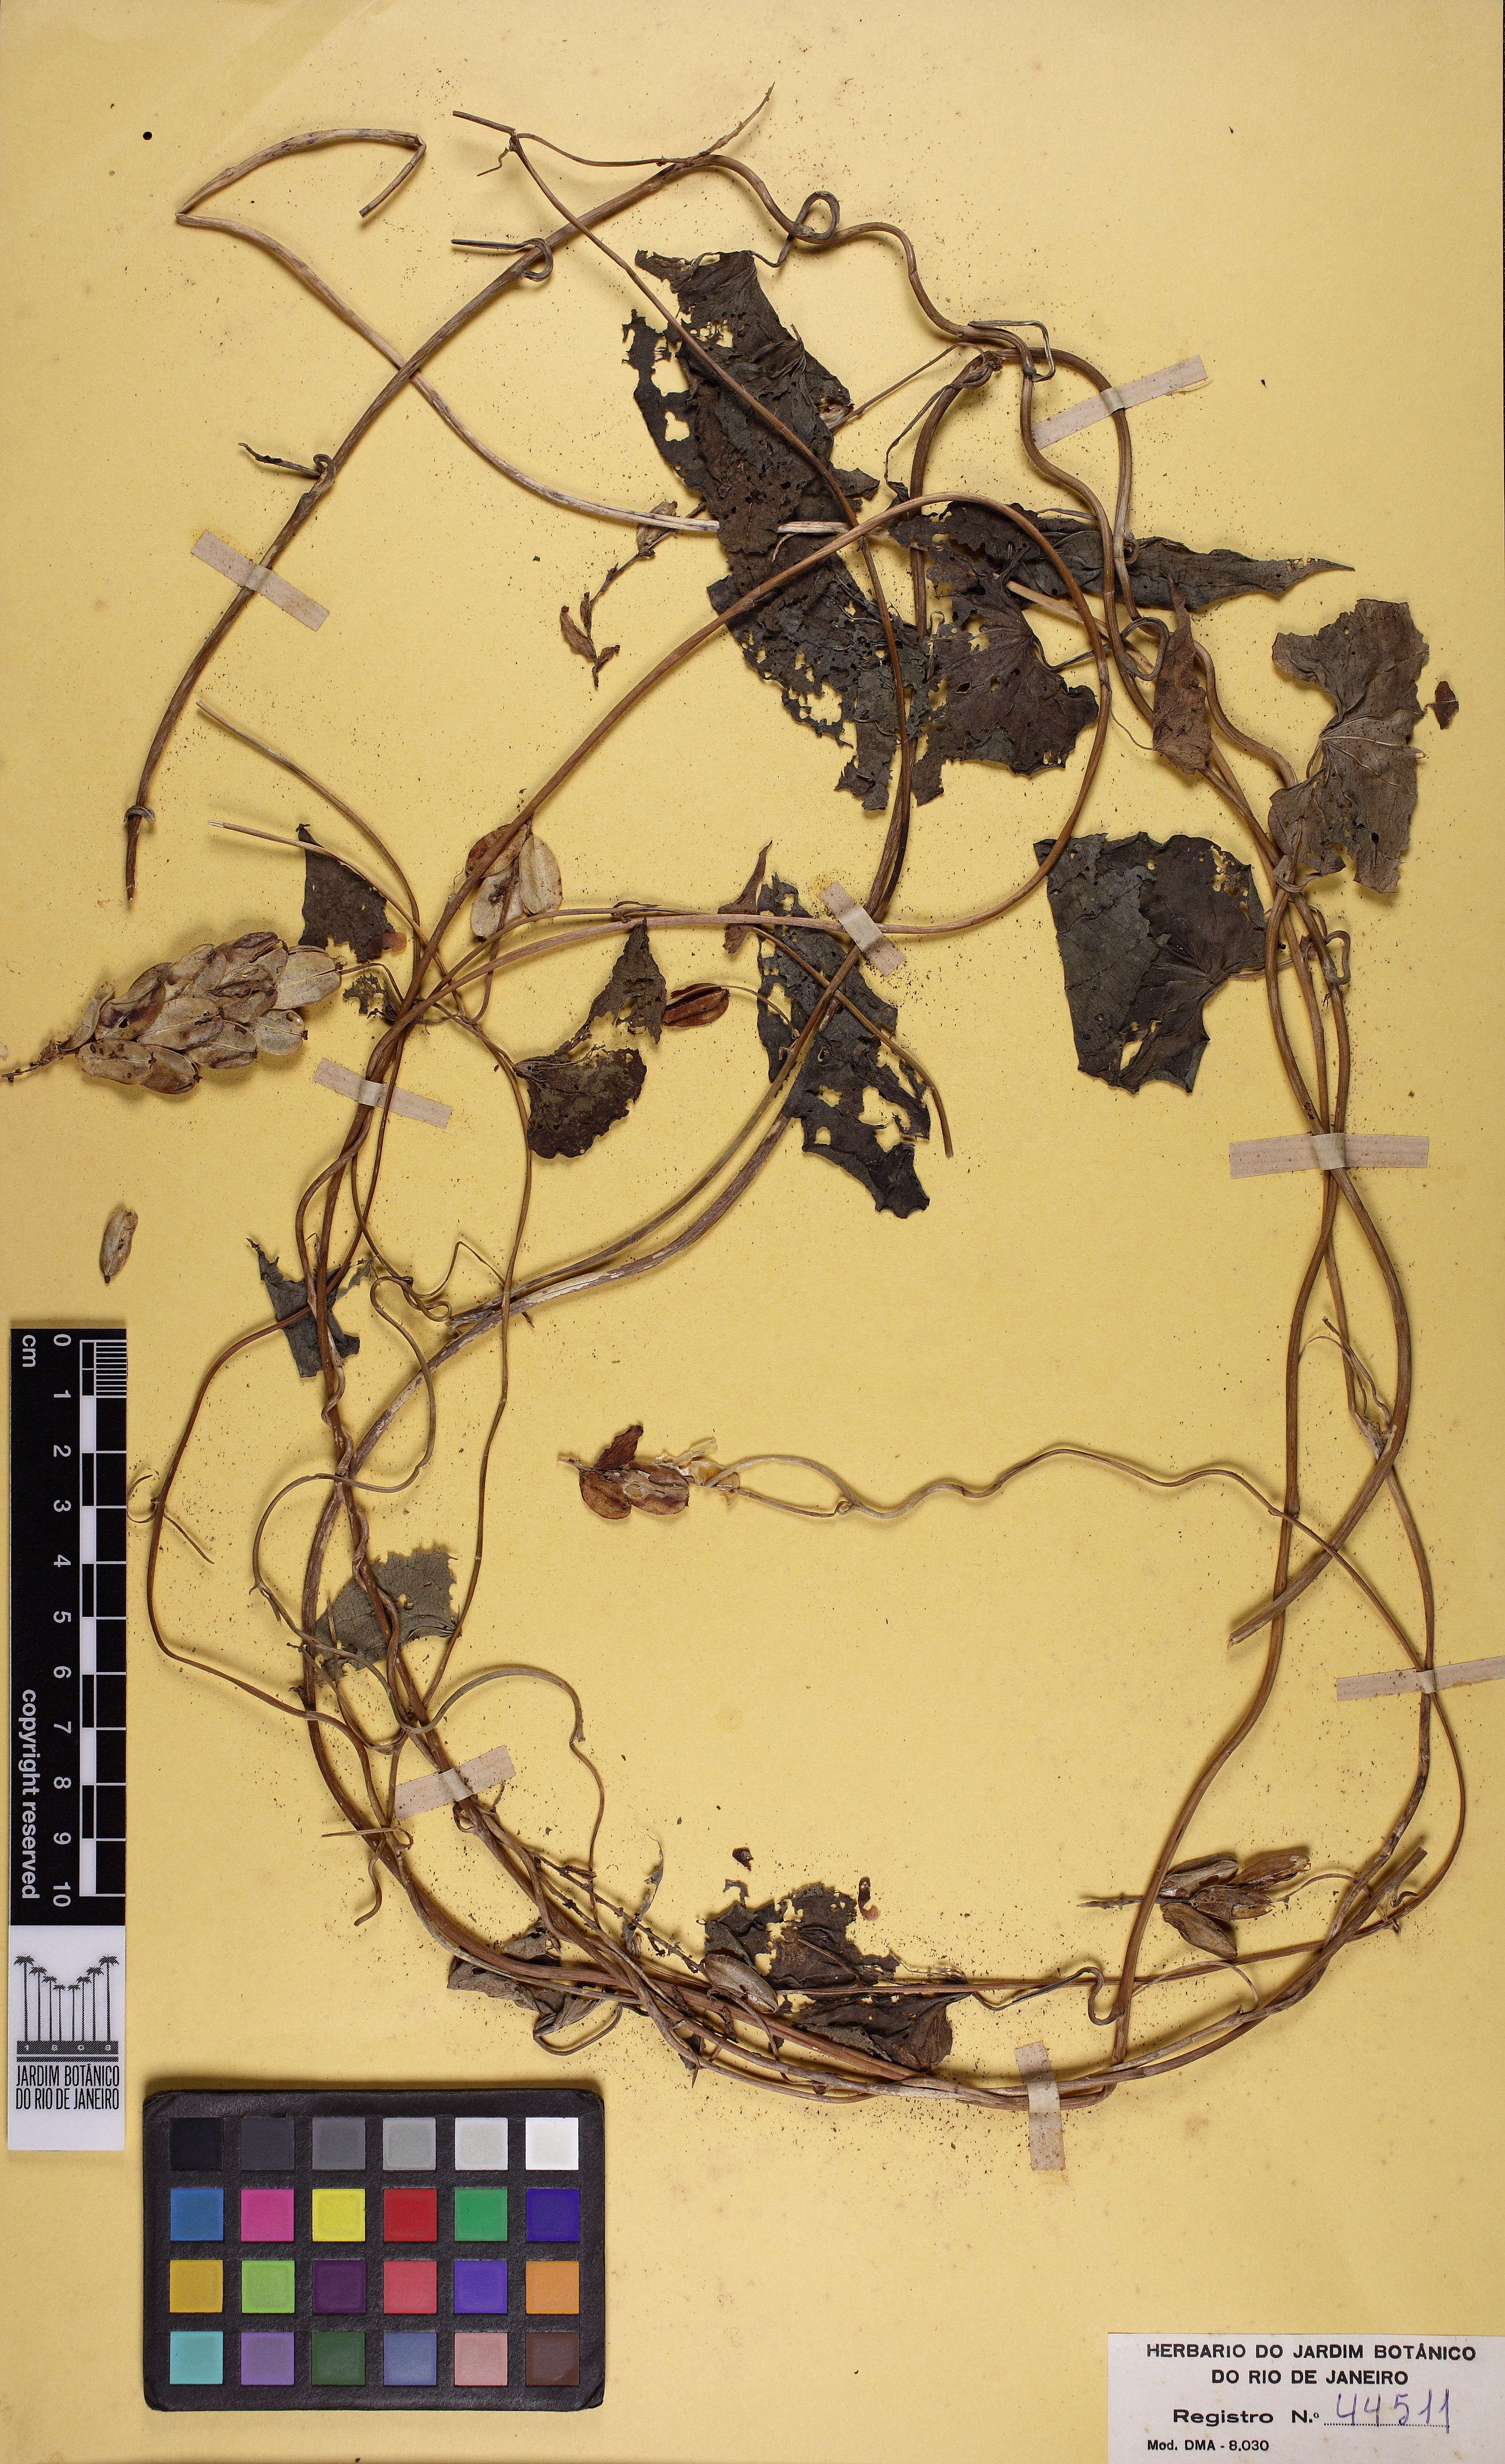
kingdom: Plantae
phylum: Tracheophyta
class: Liliopsida
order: Dioscoreales
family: Dioscoreaceae
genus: Dioscorea
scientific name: Dioscorea piperifolia
